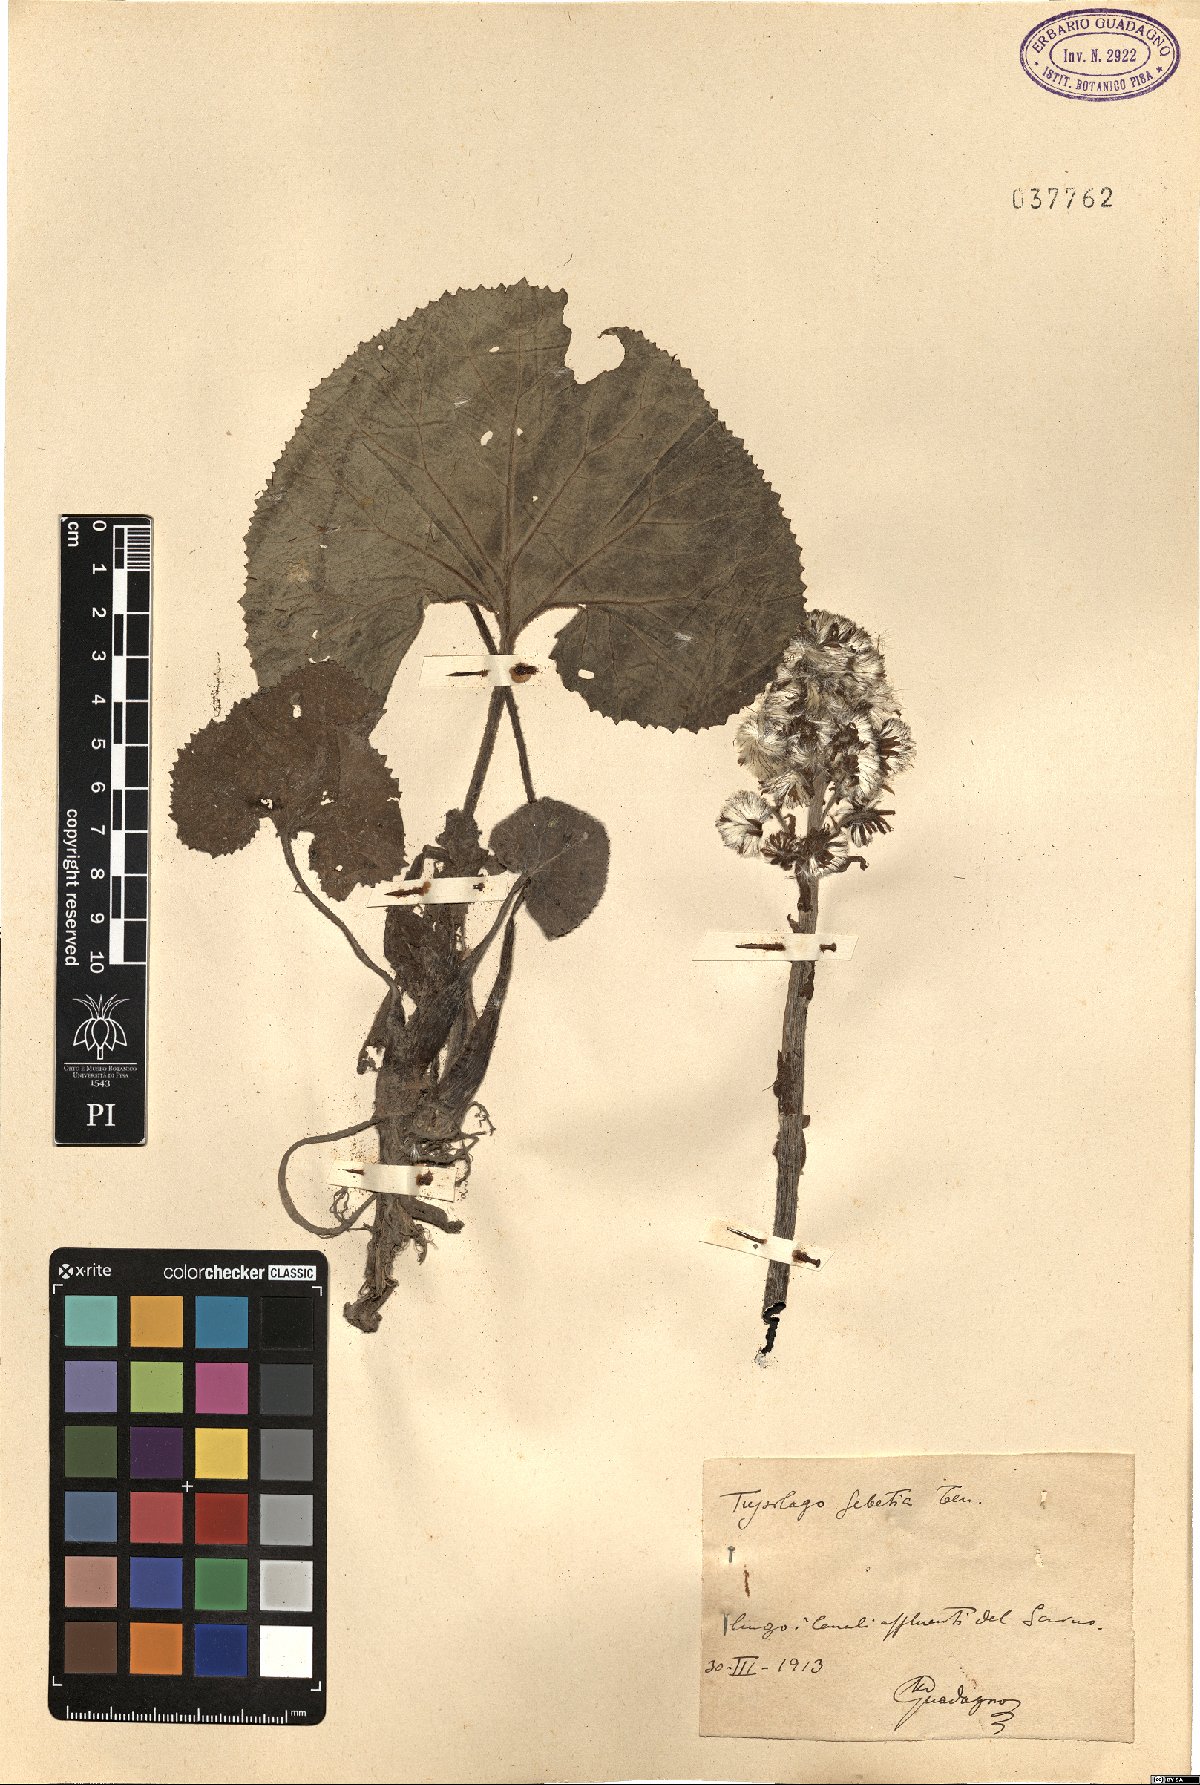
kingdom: Plantae
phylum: Tracheophyta
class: Magnoliopsida
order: Asterales
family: Asteraceae
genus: Tussilago
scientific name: Tussilago
